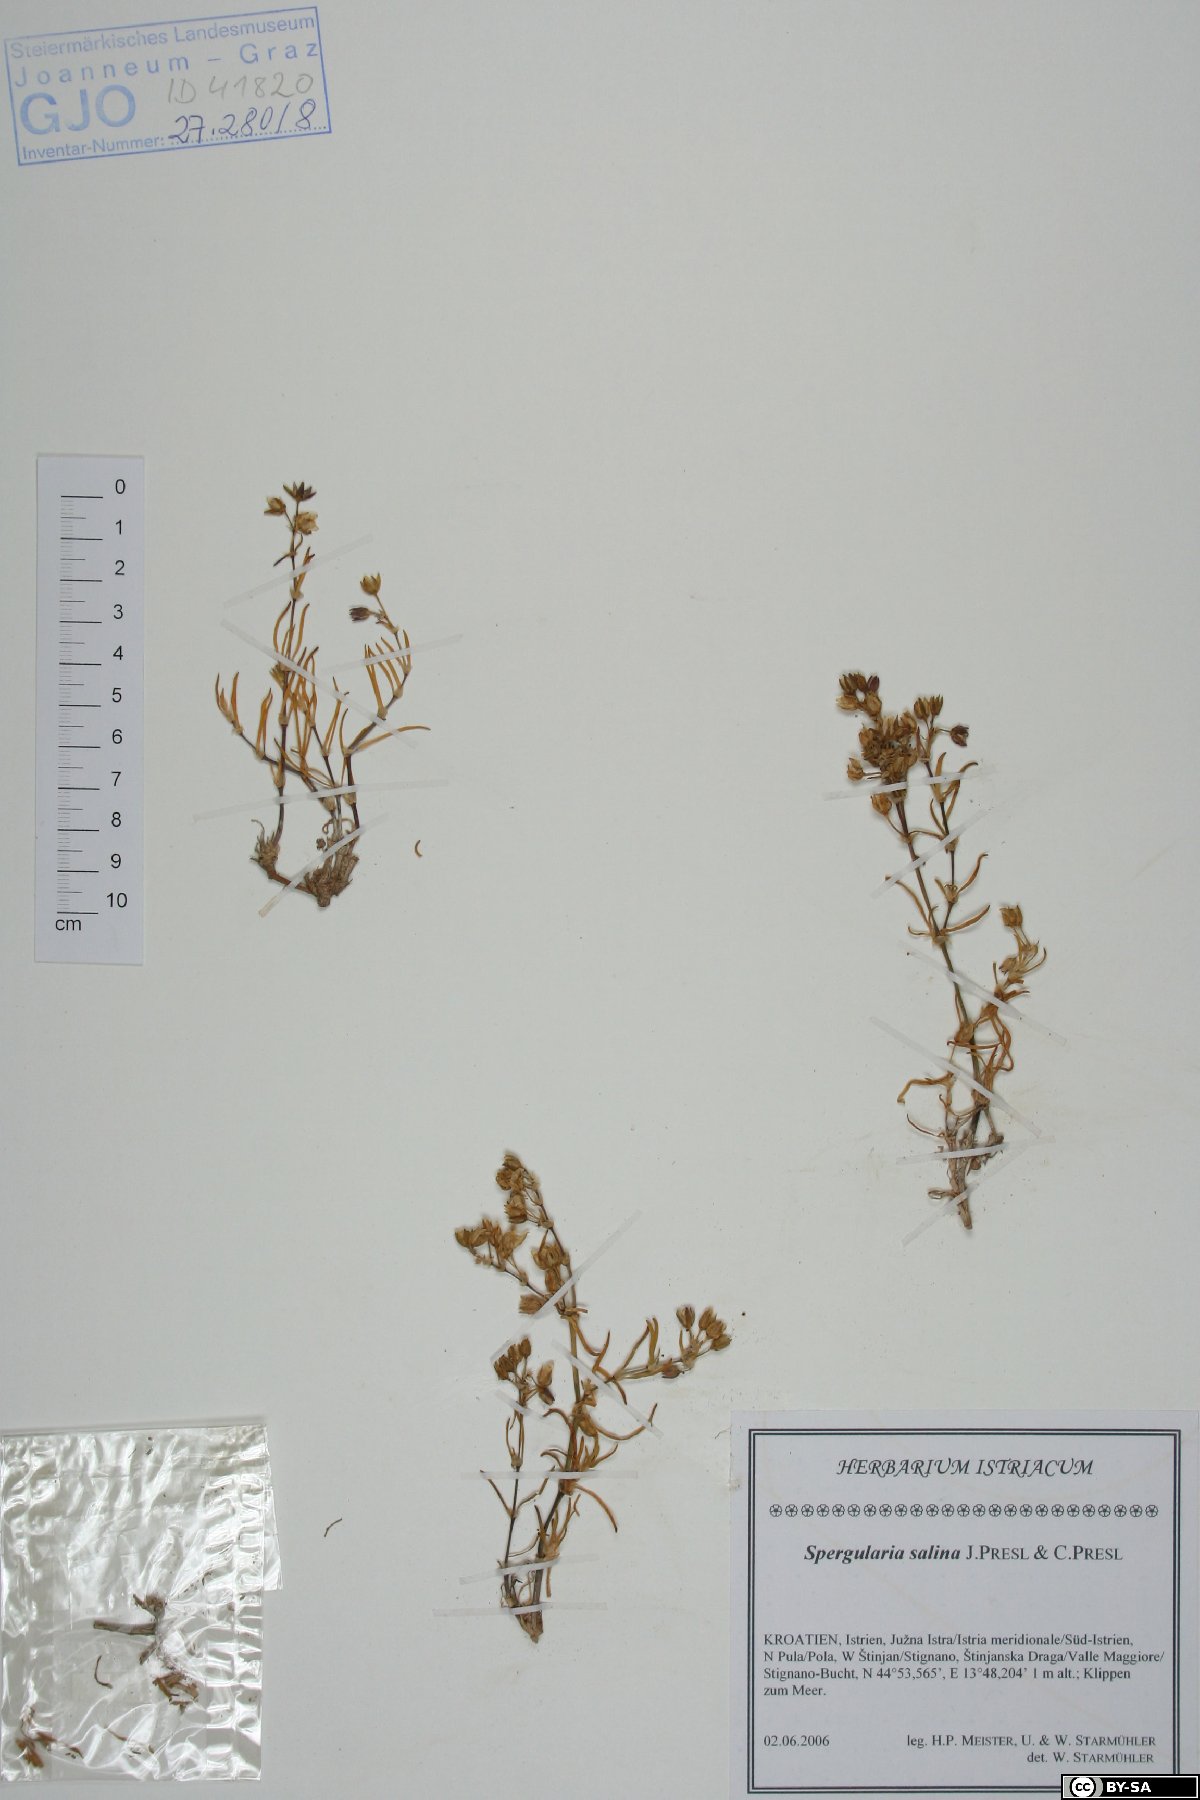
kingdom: Plantae
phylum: Tracheophyta
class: Magnoliopsida
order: Caryophyllales
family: Caryophyllaceae
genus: Spergularia
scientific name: Spergularia marina
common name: Lesser sea-spurrey
